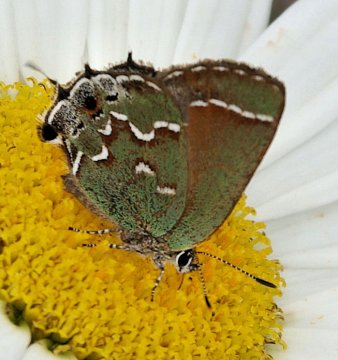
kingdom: Animalia
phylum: Arthropoda
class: Insecta
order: Lepidoptera
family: Lycaenidae
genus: Mitoura
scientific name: Mitoura gryneus
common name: Juniper Hairstreak
